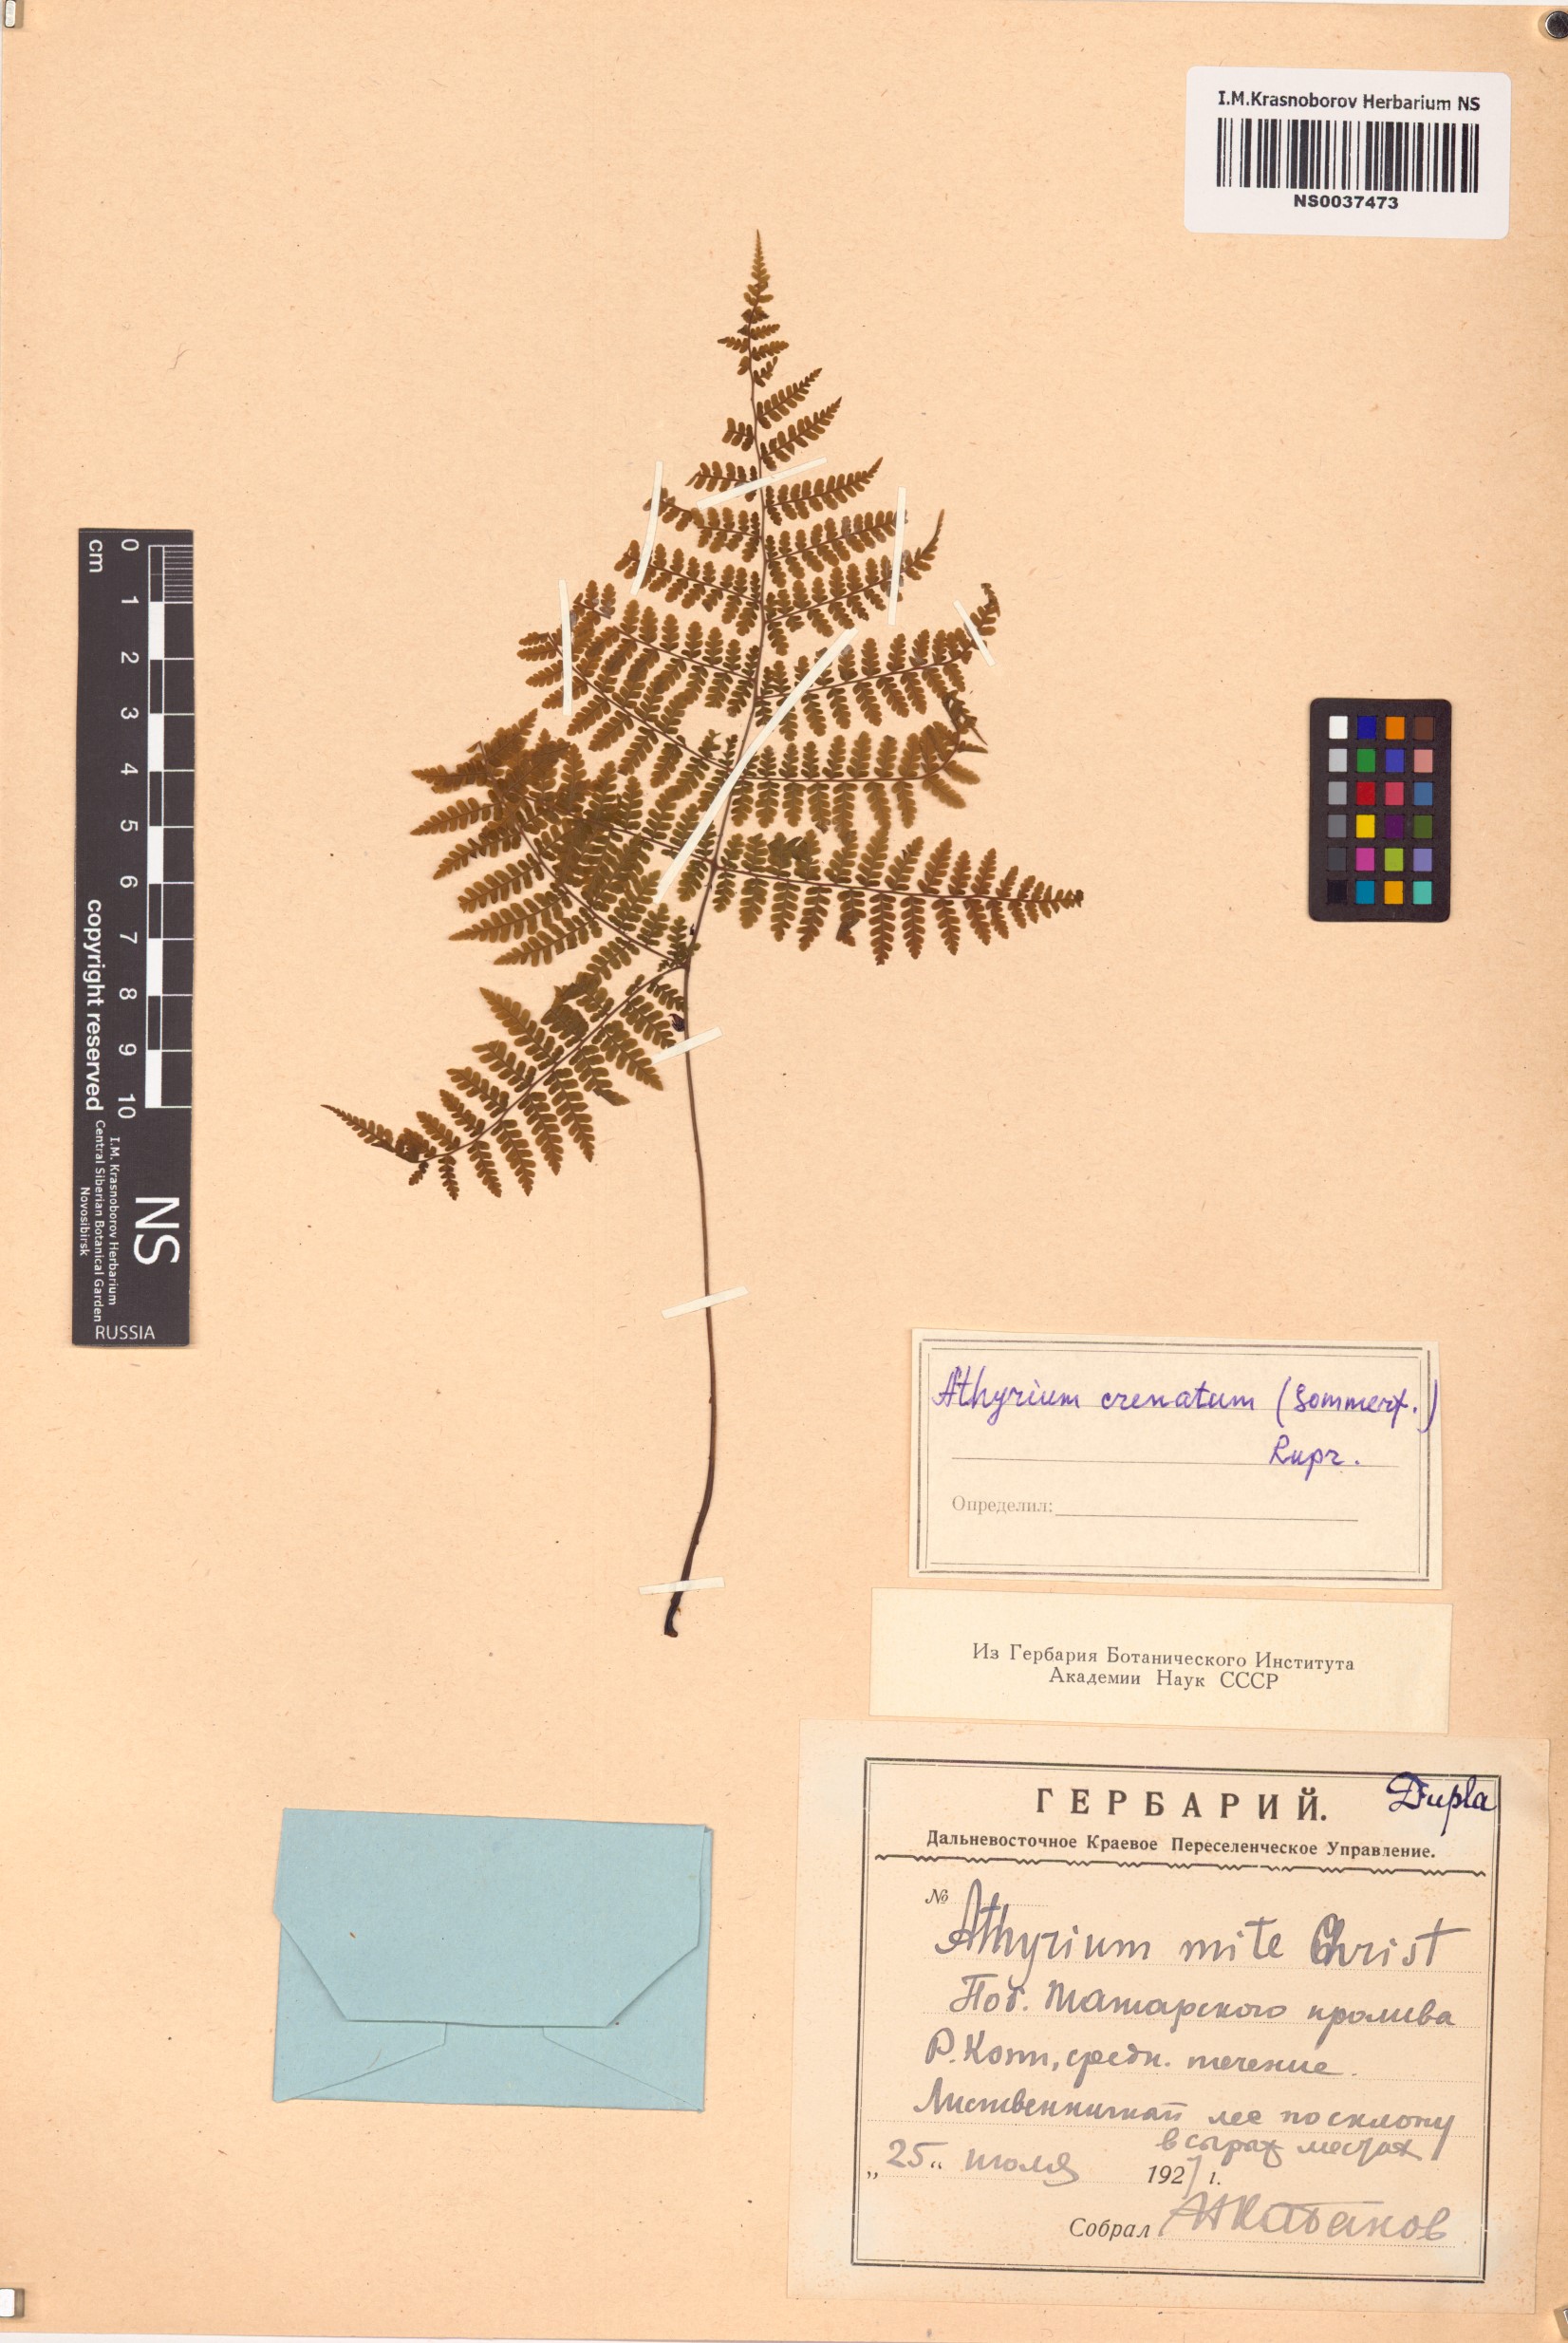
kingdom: Plantae
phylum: Tracheophyta
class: Polypodiopsida
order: Polypodiales
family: Athyriaceae
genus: Diplazium
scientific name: Diplazium sibiricum
